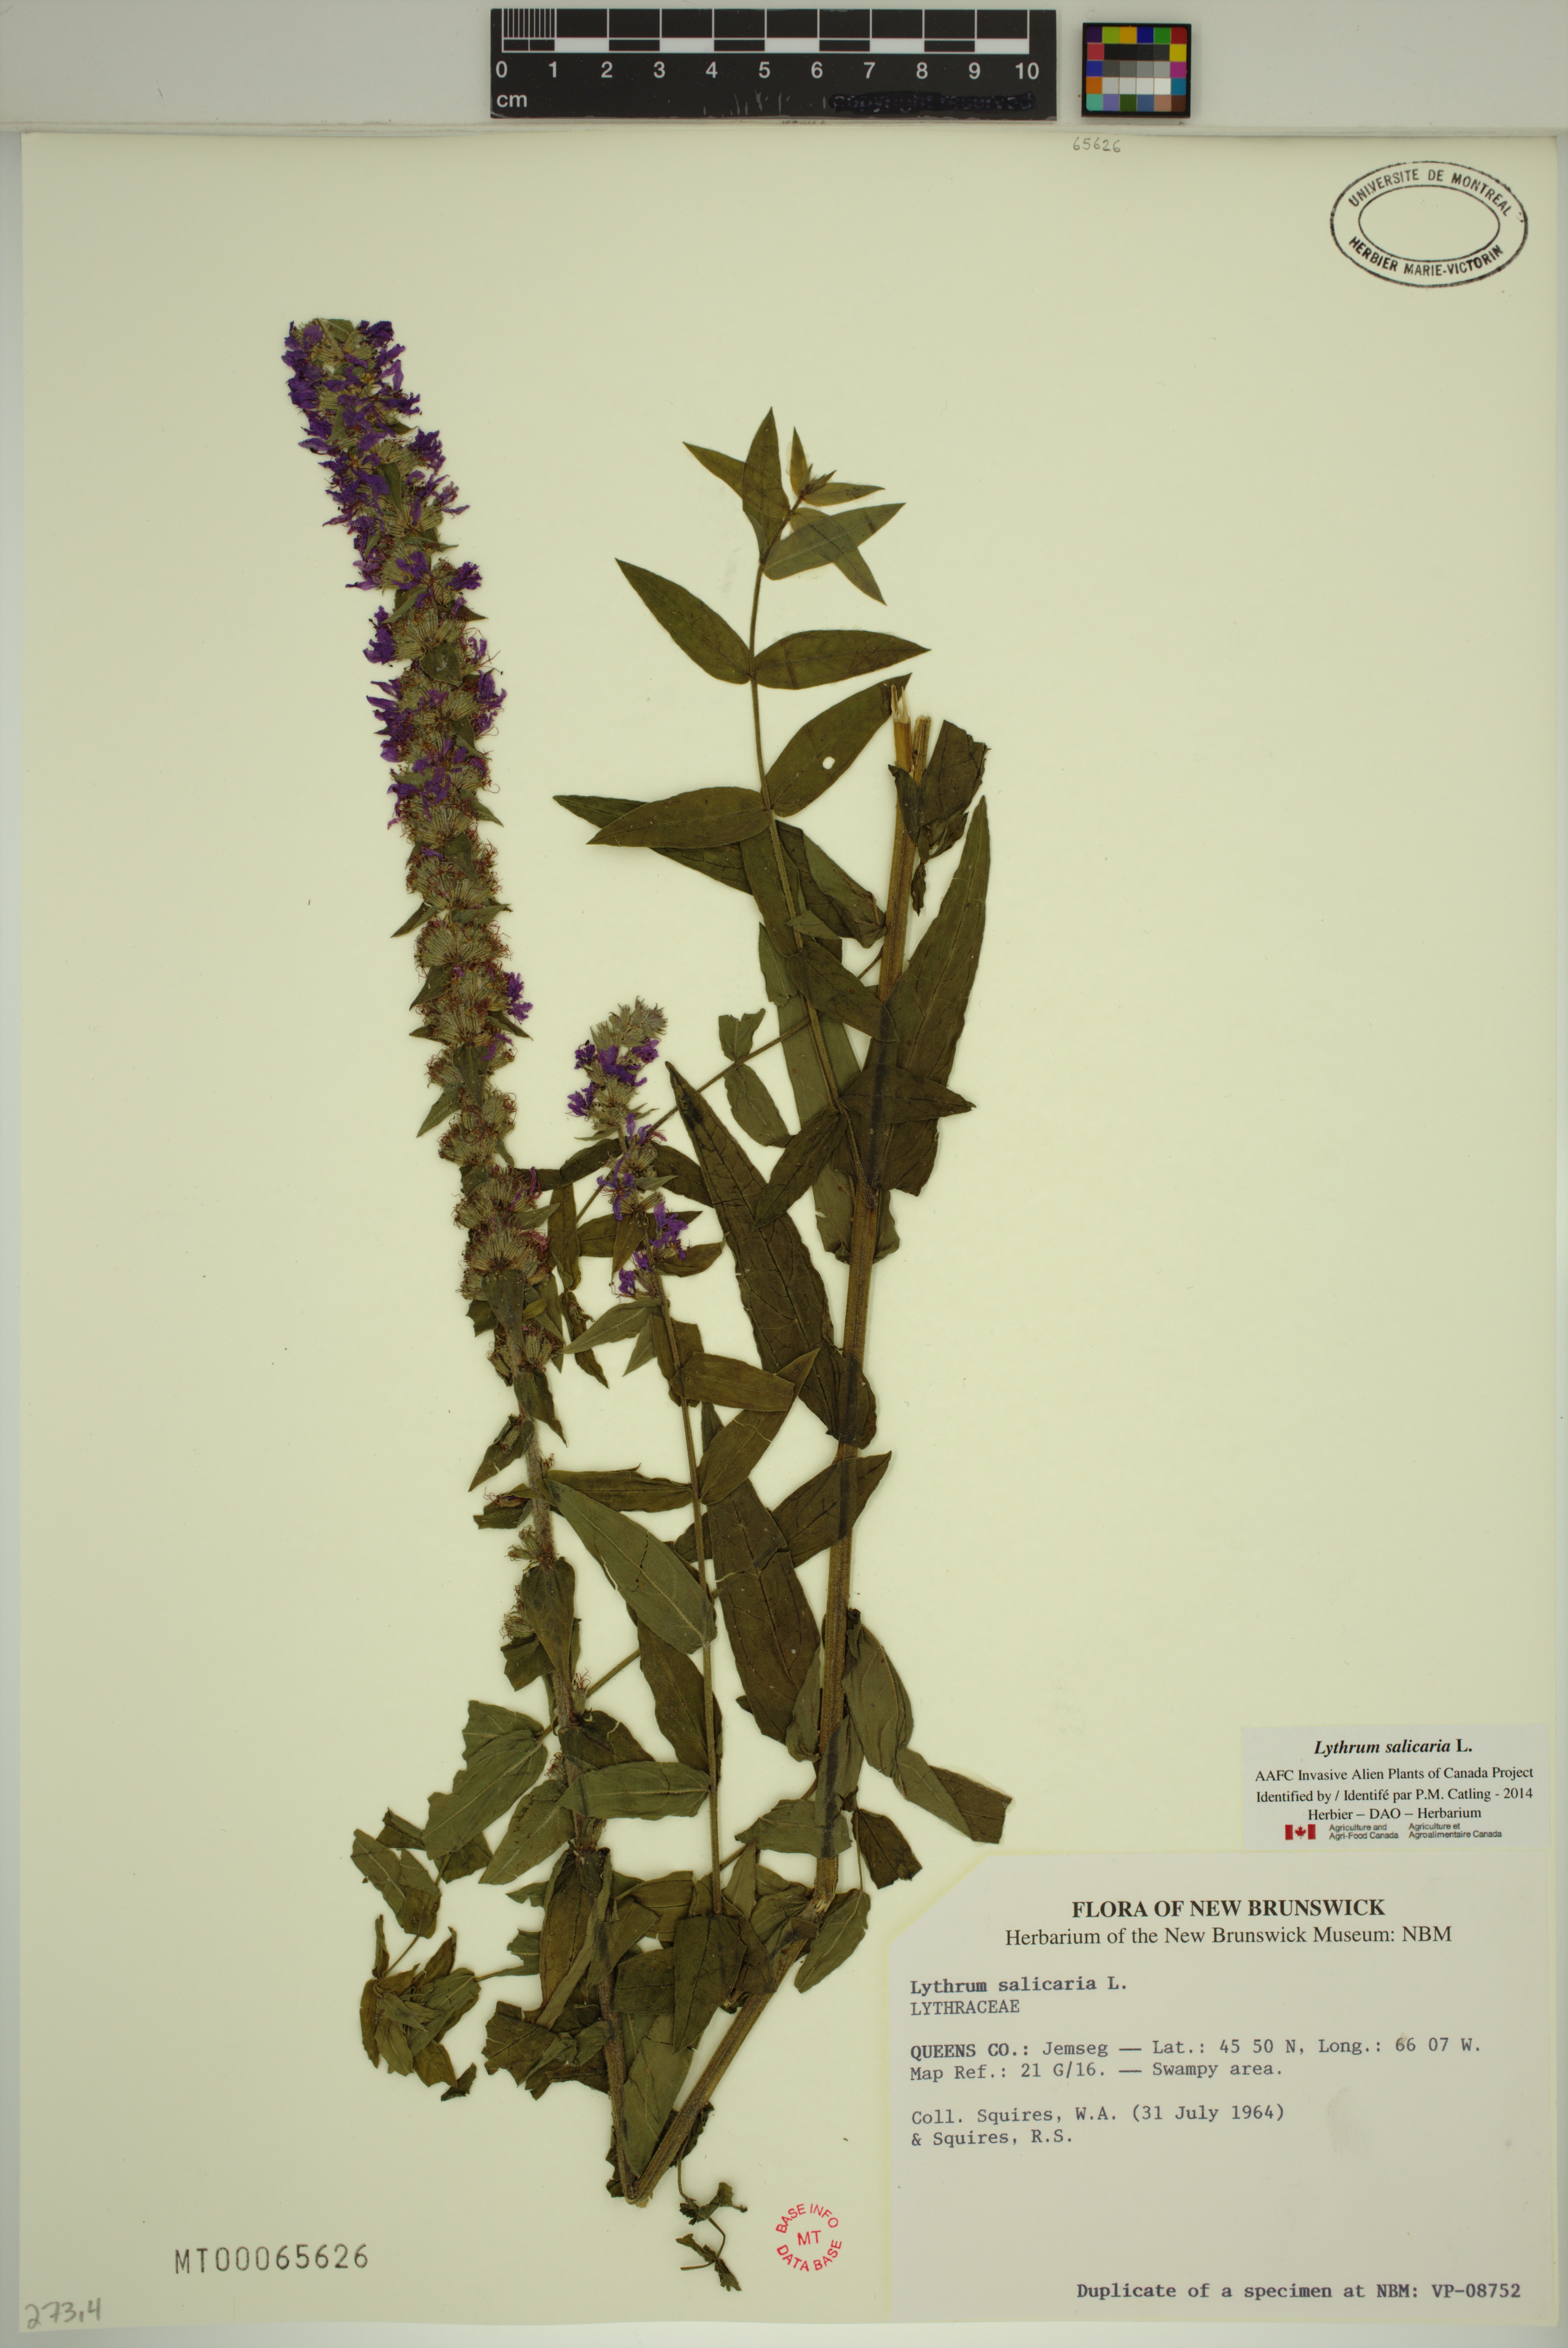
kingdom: Plantae
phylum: Tracheophyta
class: Magnoliopsida
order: Myrtales
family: Lythraceae
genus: Lythrum
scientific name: Lythrum salicaria
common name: Purple loosestrife
